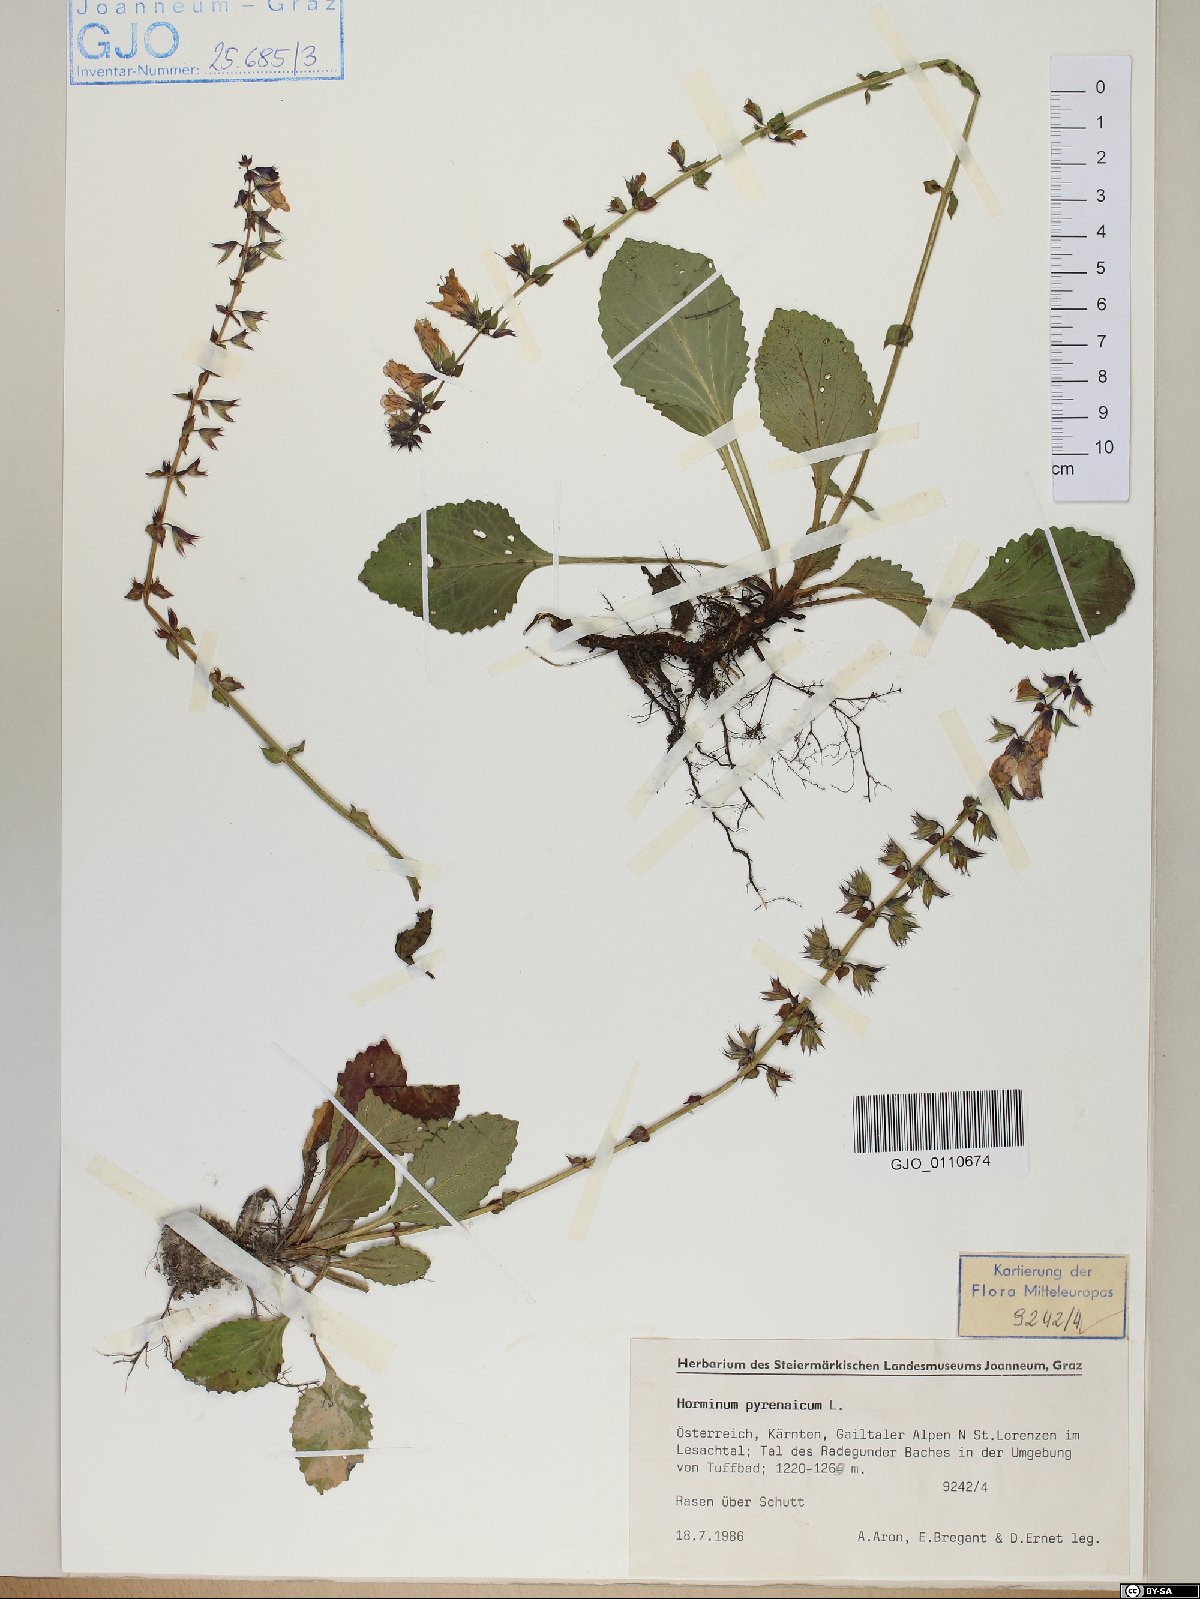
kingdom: Plantae
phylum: Tracheophyta
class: Magnoliopsida
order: Lamiales
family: Lamiaceae
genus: Horminum
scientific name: Horminum pyrenaicum
